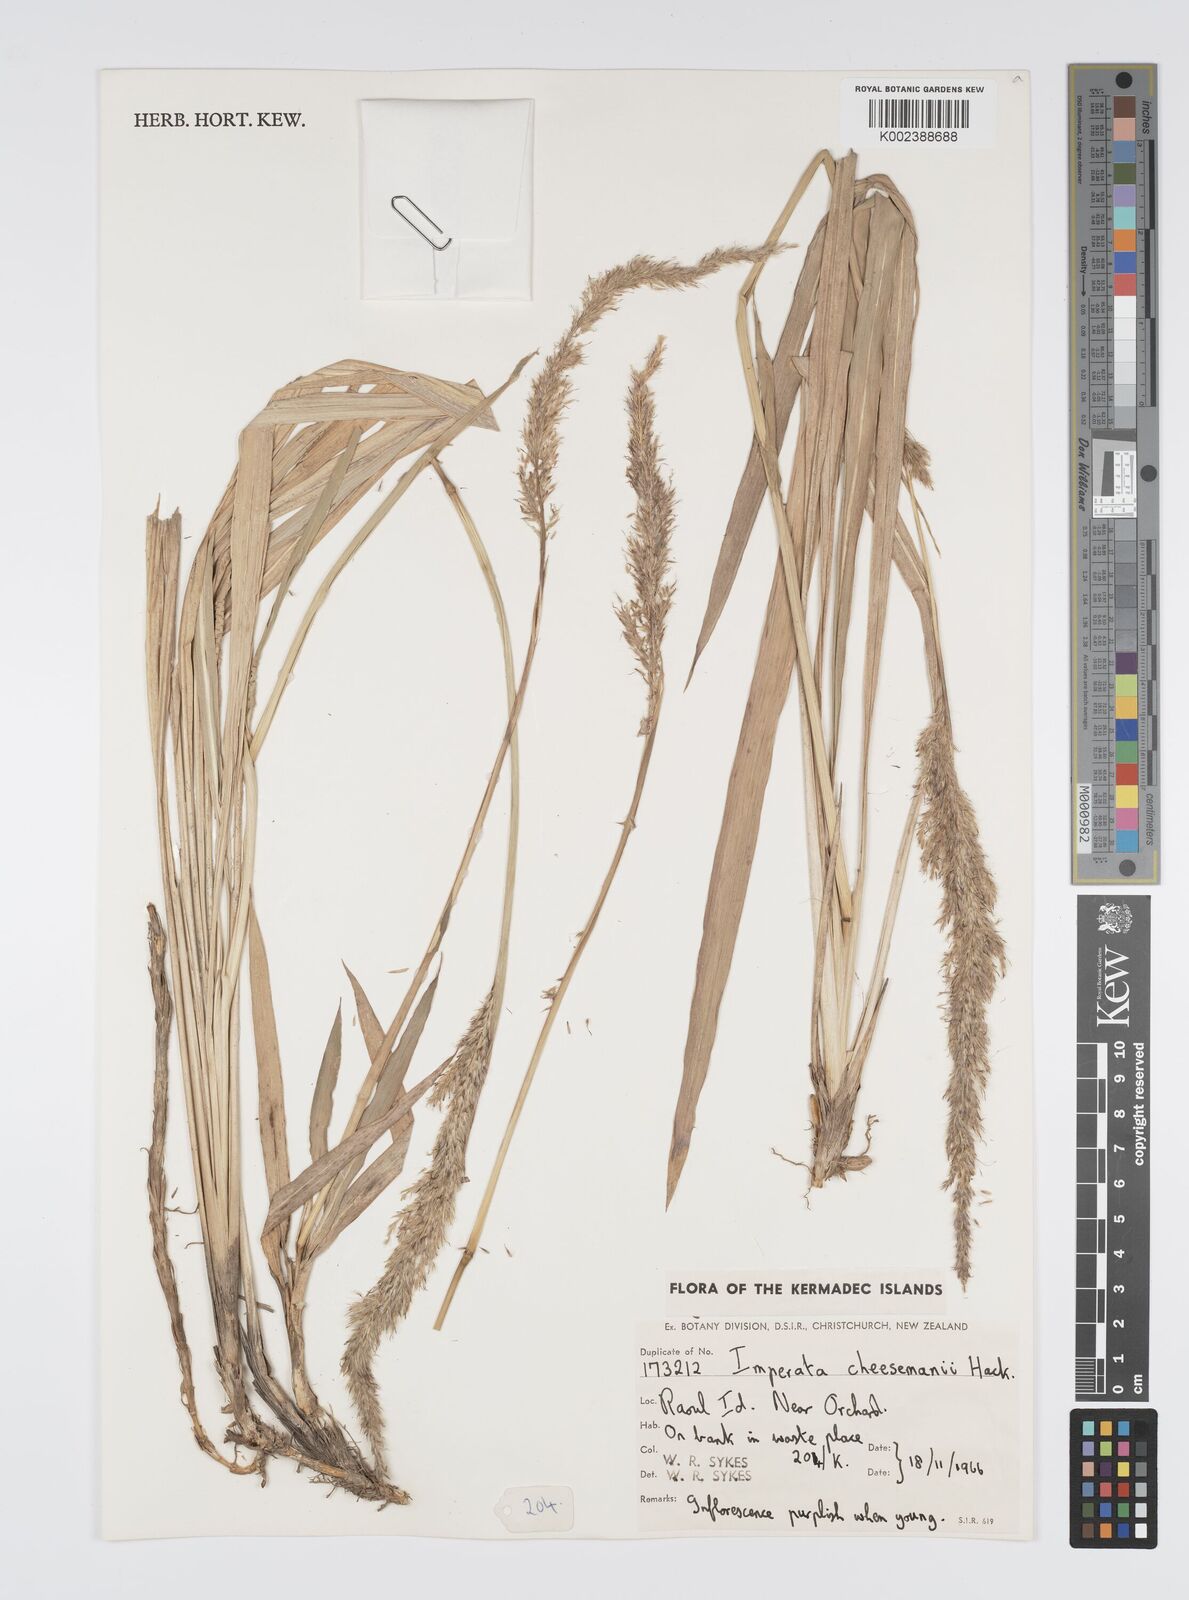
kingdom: Plantae
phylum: Tracheophyta
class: Liliopsida
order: Poales
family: Poaceae
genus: Imperata
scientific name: Imperata cheesemanii
